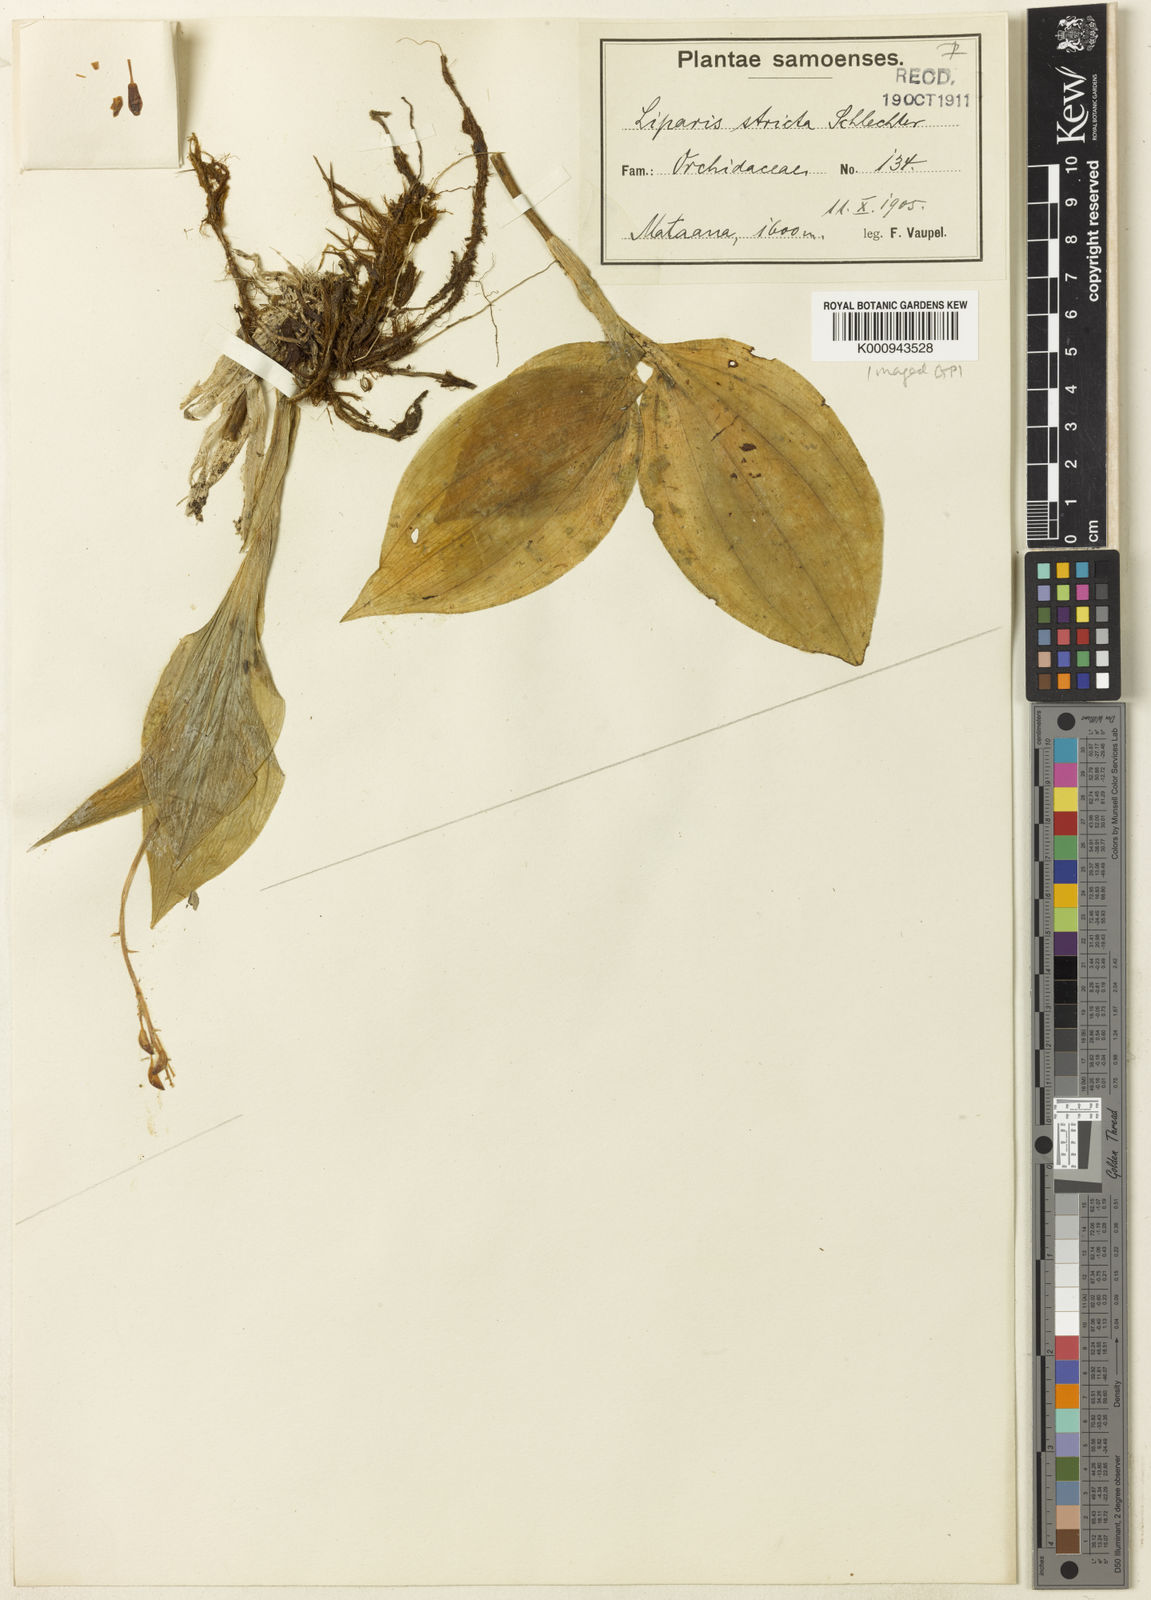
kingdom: Plantae
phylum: Tracheophyta
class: Liliopsida
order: Asparagales
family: Orchidaceae
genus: Liparis
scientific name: Liparis layardii
